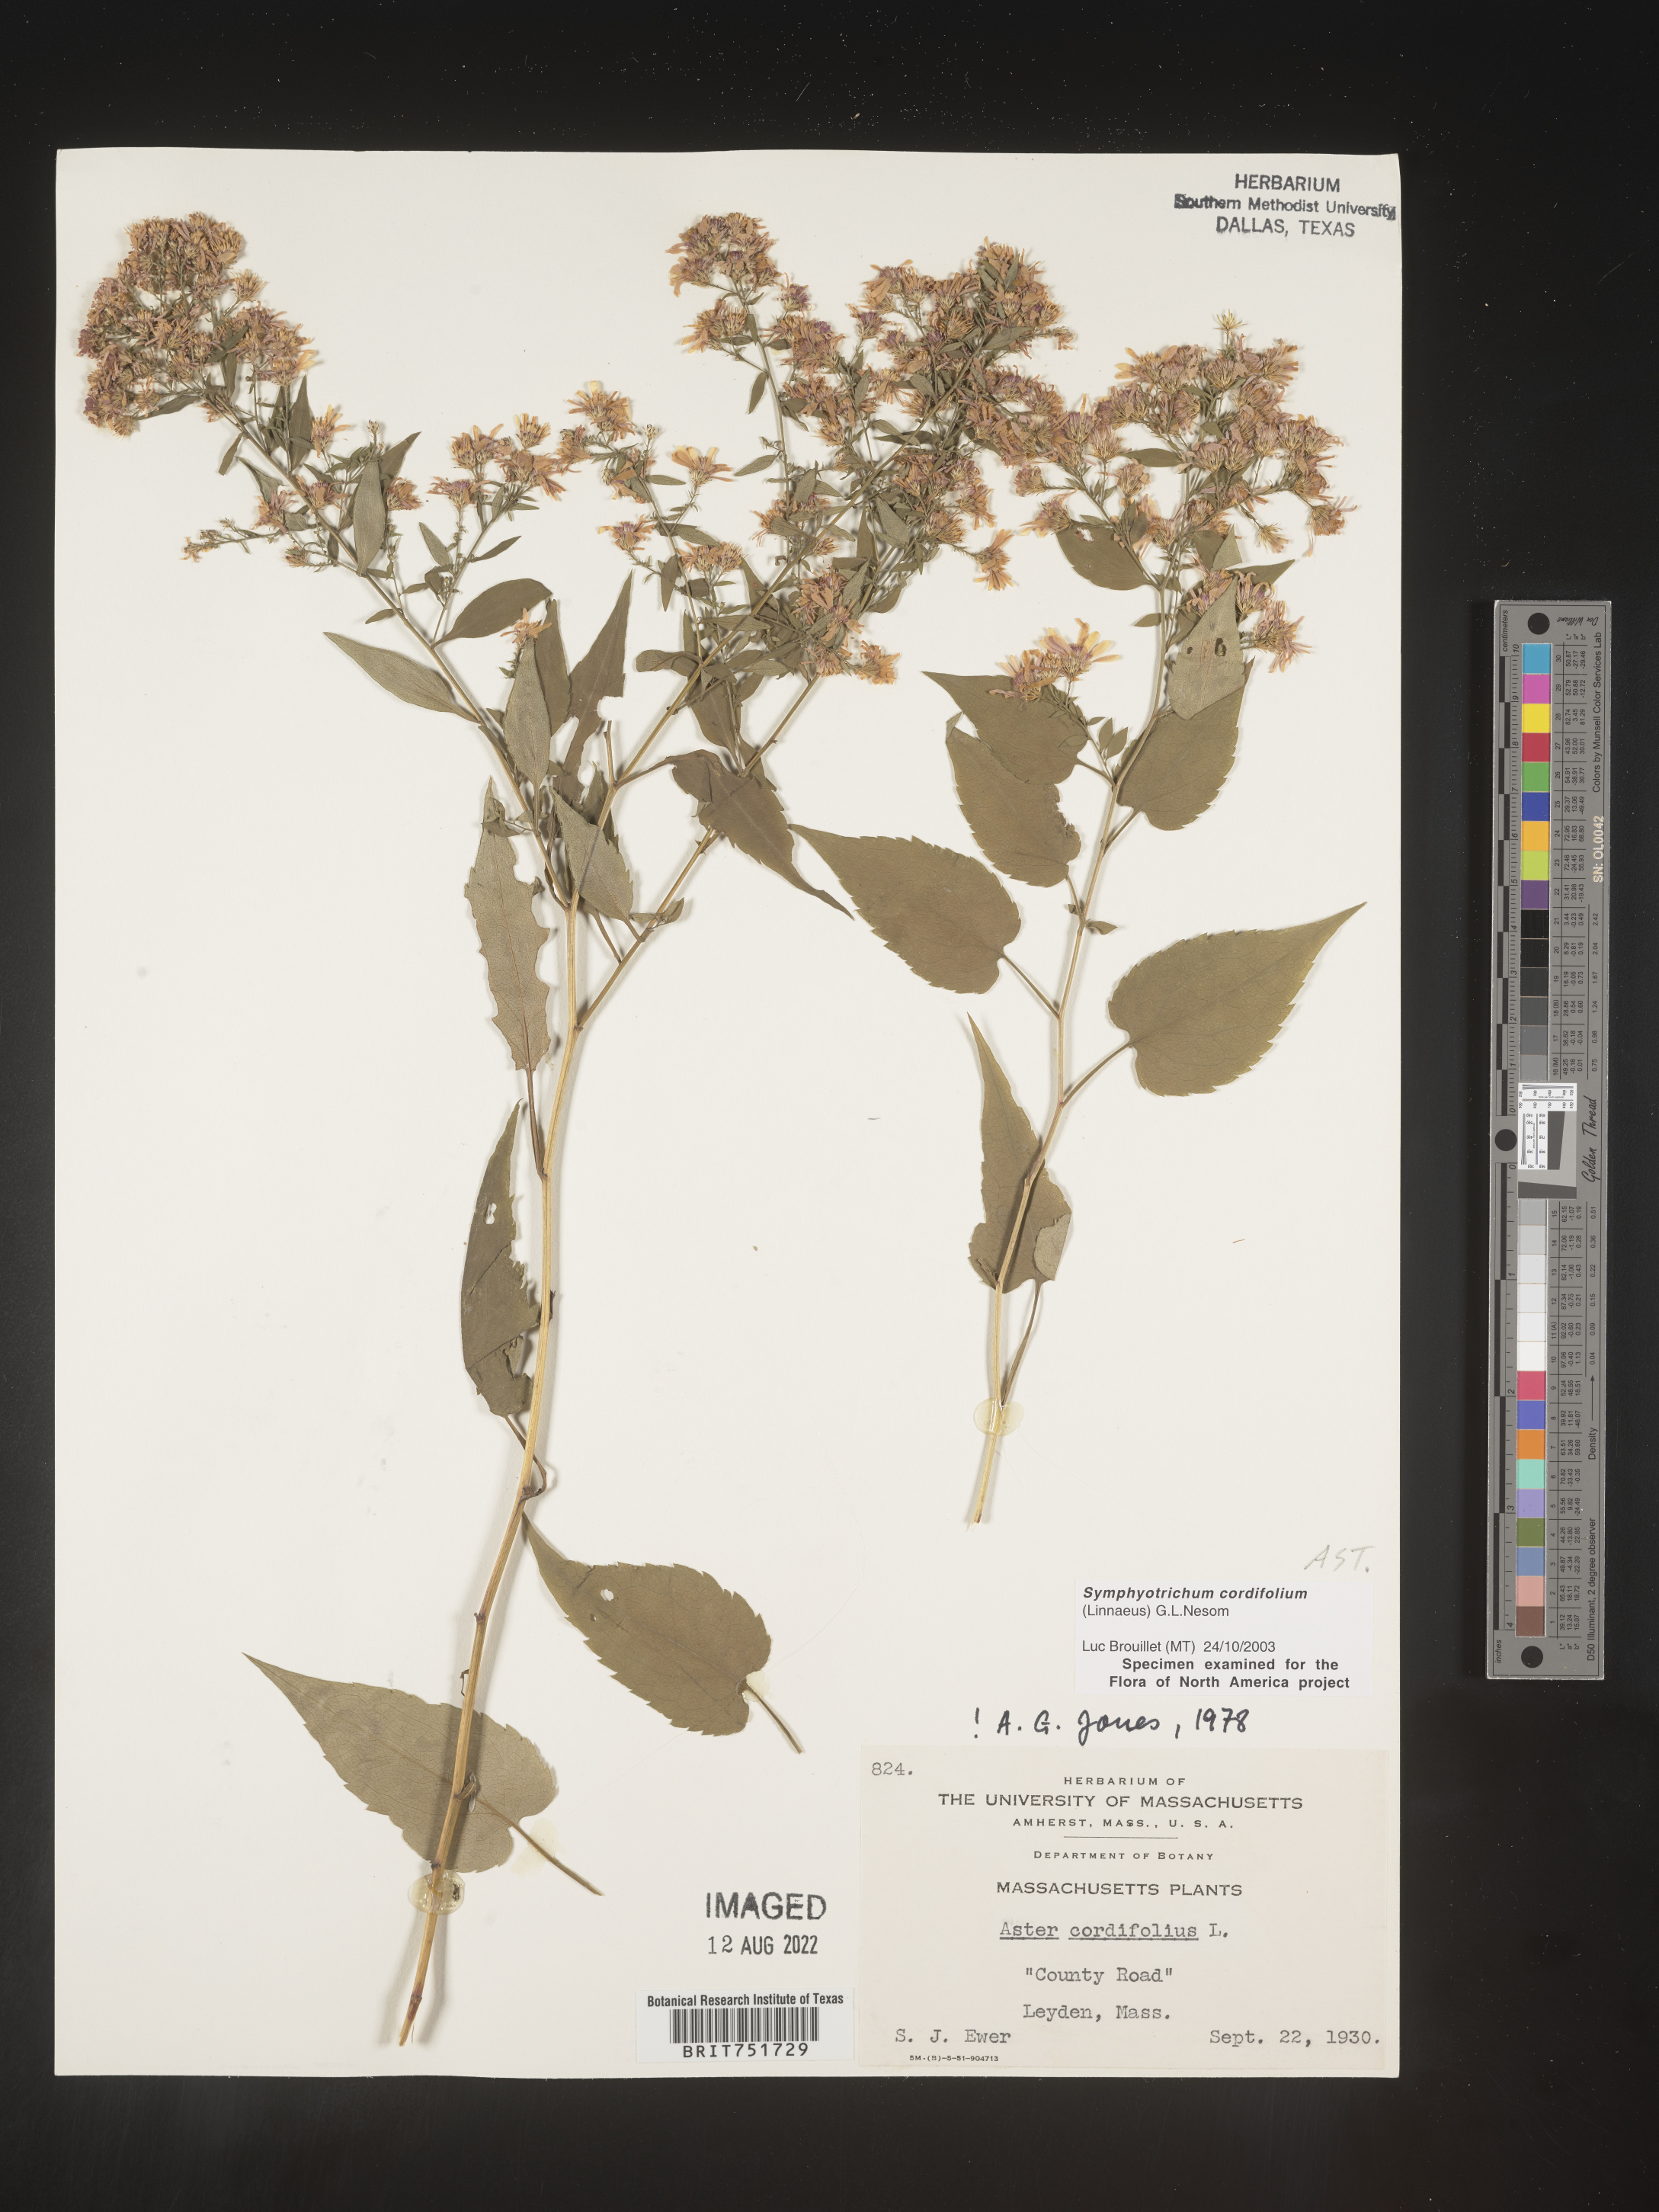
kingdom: Plantae
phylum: Tracheophyta
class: Magnoliopsida
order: Asterales
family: Asteraceae
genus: Symphyotrichum
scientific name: Symphyotrichum cordifolium
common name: Beeweed
